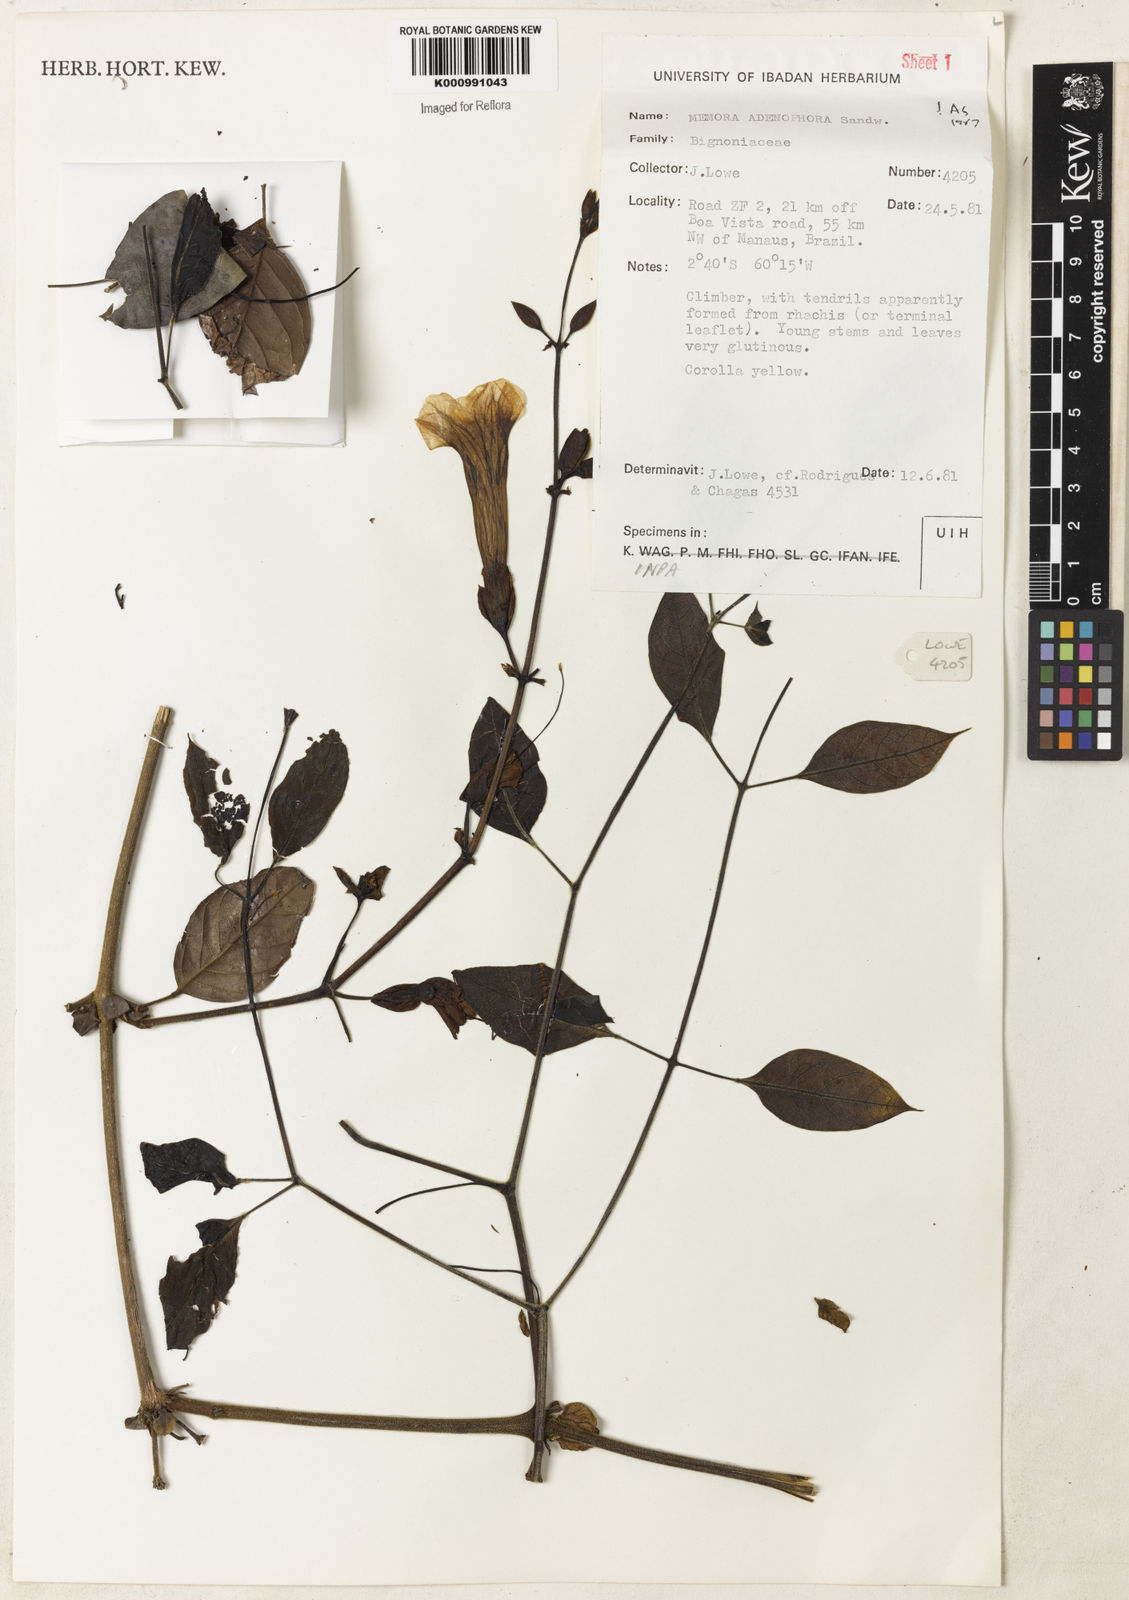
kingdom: Plantae
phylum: Tracheophyta
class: Magnoliopsida
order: Lamiales
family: Bignoniaceae
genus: Adenocalymma
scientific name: Adenocalymma adenophorum
